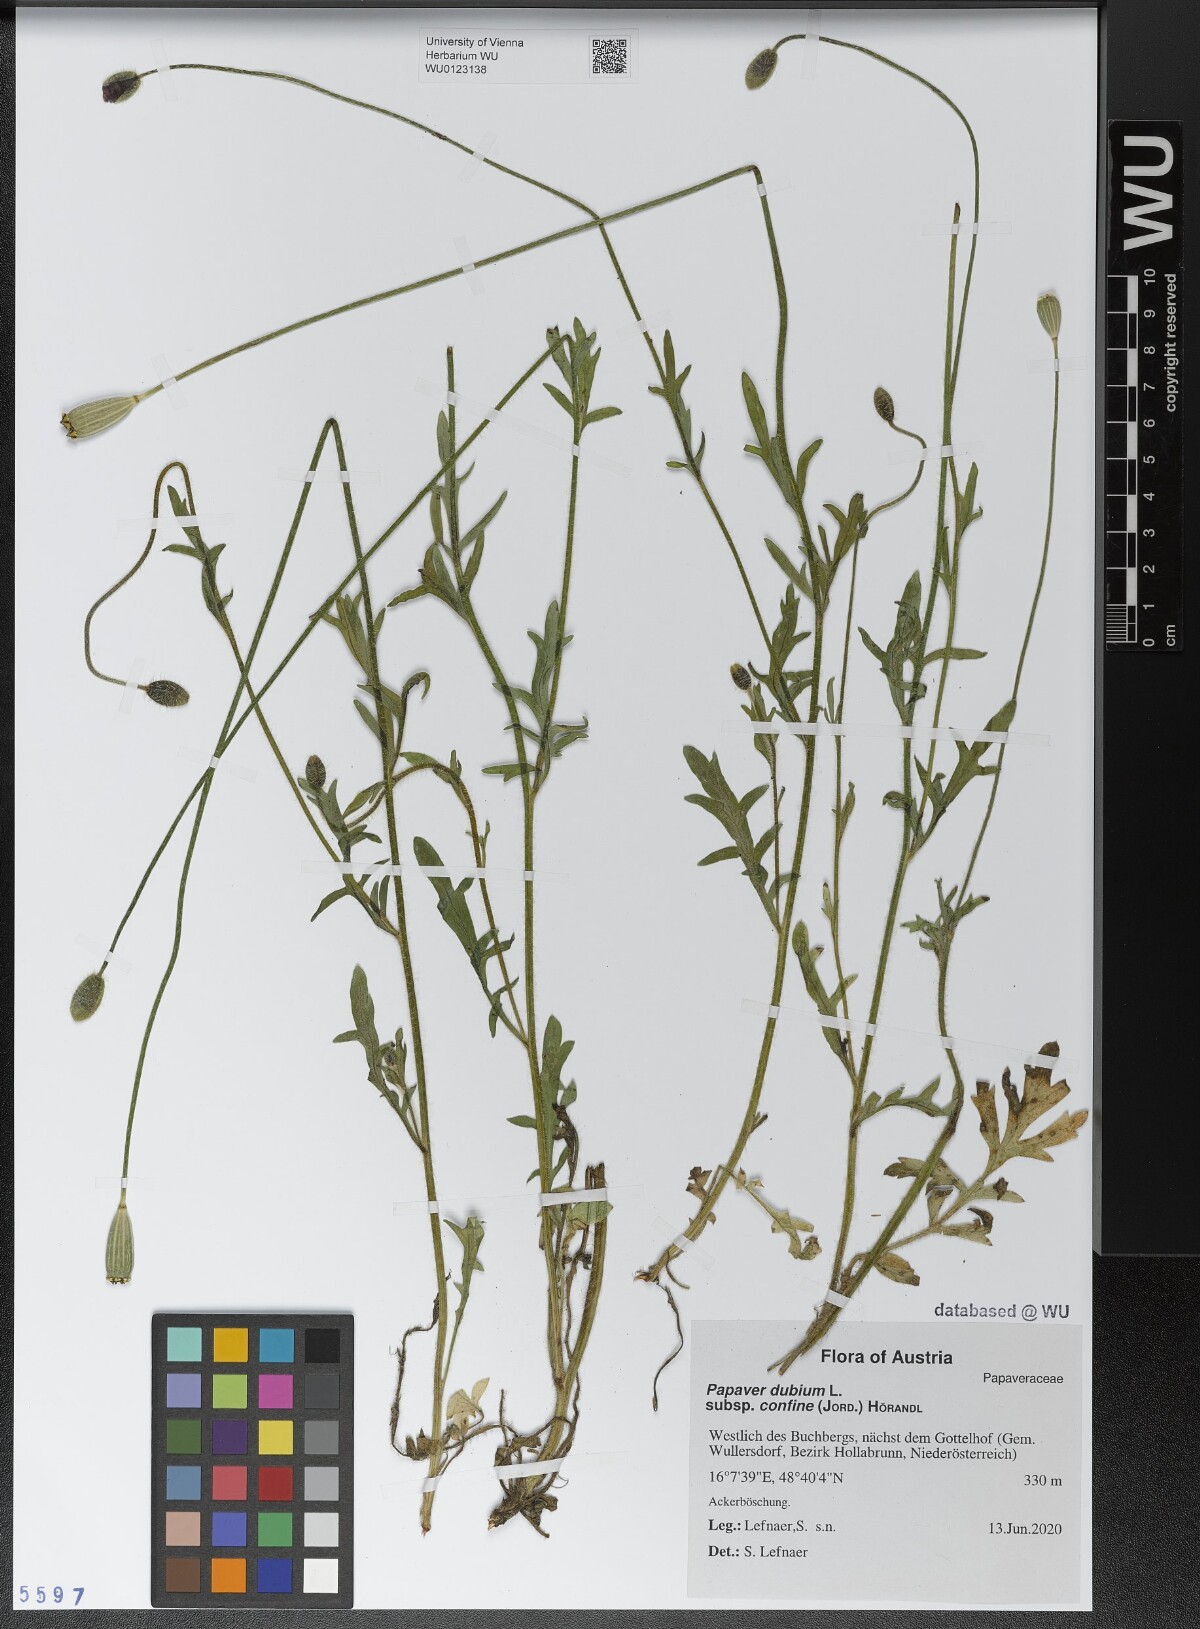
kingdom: Plantae
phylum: Tracheophyta
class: Magnoliopsida
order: Ranunculales
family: Papaveraceae
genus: Papaver
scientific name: Papaver confine
